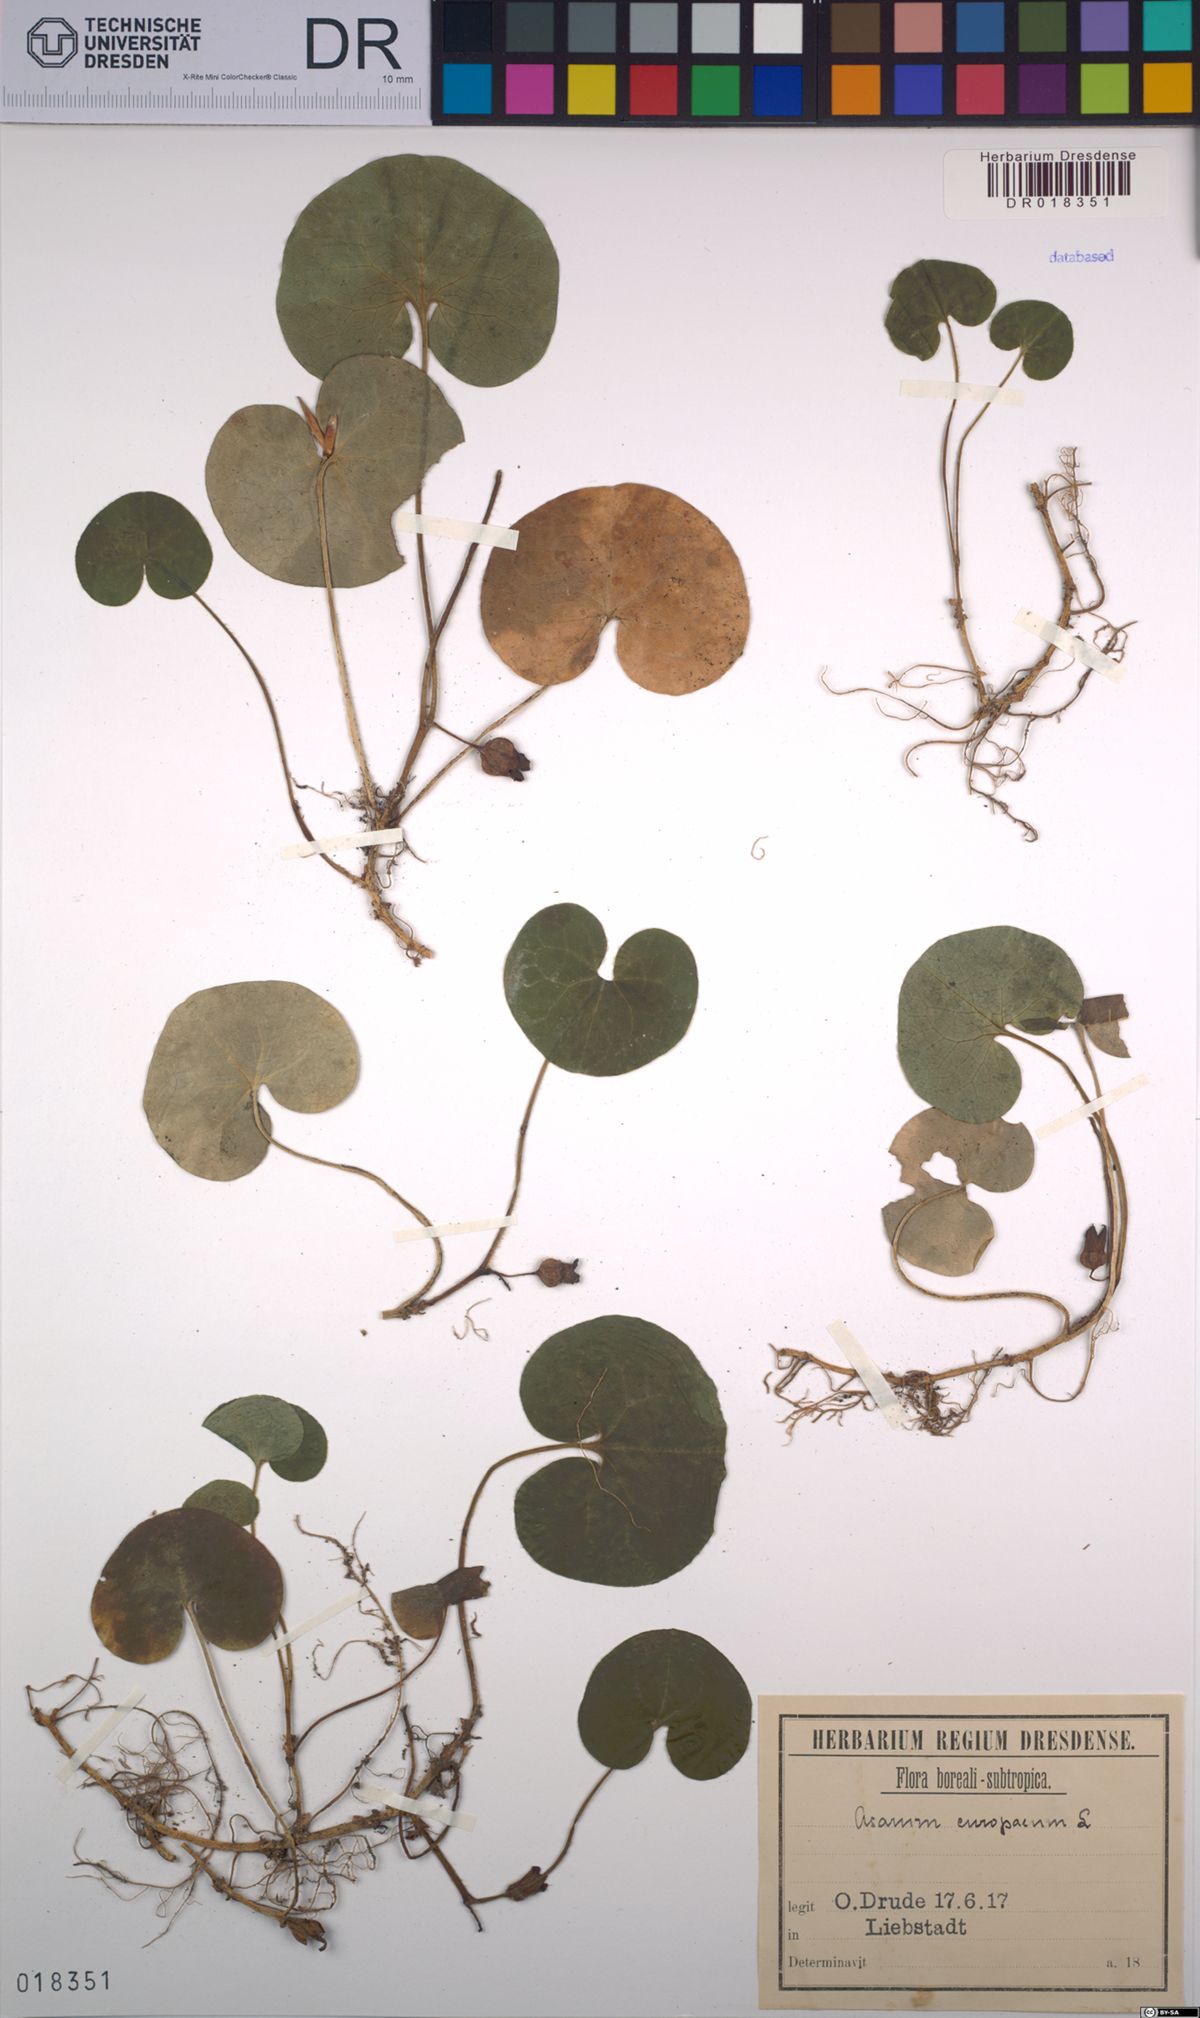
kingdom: Plantae
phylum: Tracheophyta
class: Magnoliopsida
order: Piperales
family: Aristolochiaceae
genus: Asarum
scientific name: Asarum europaeum
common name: Asarabacca
